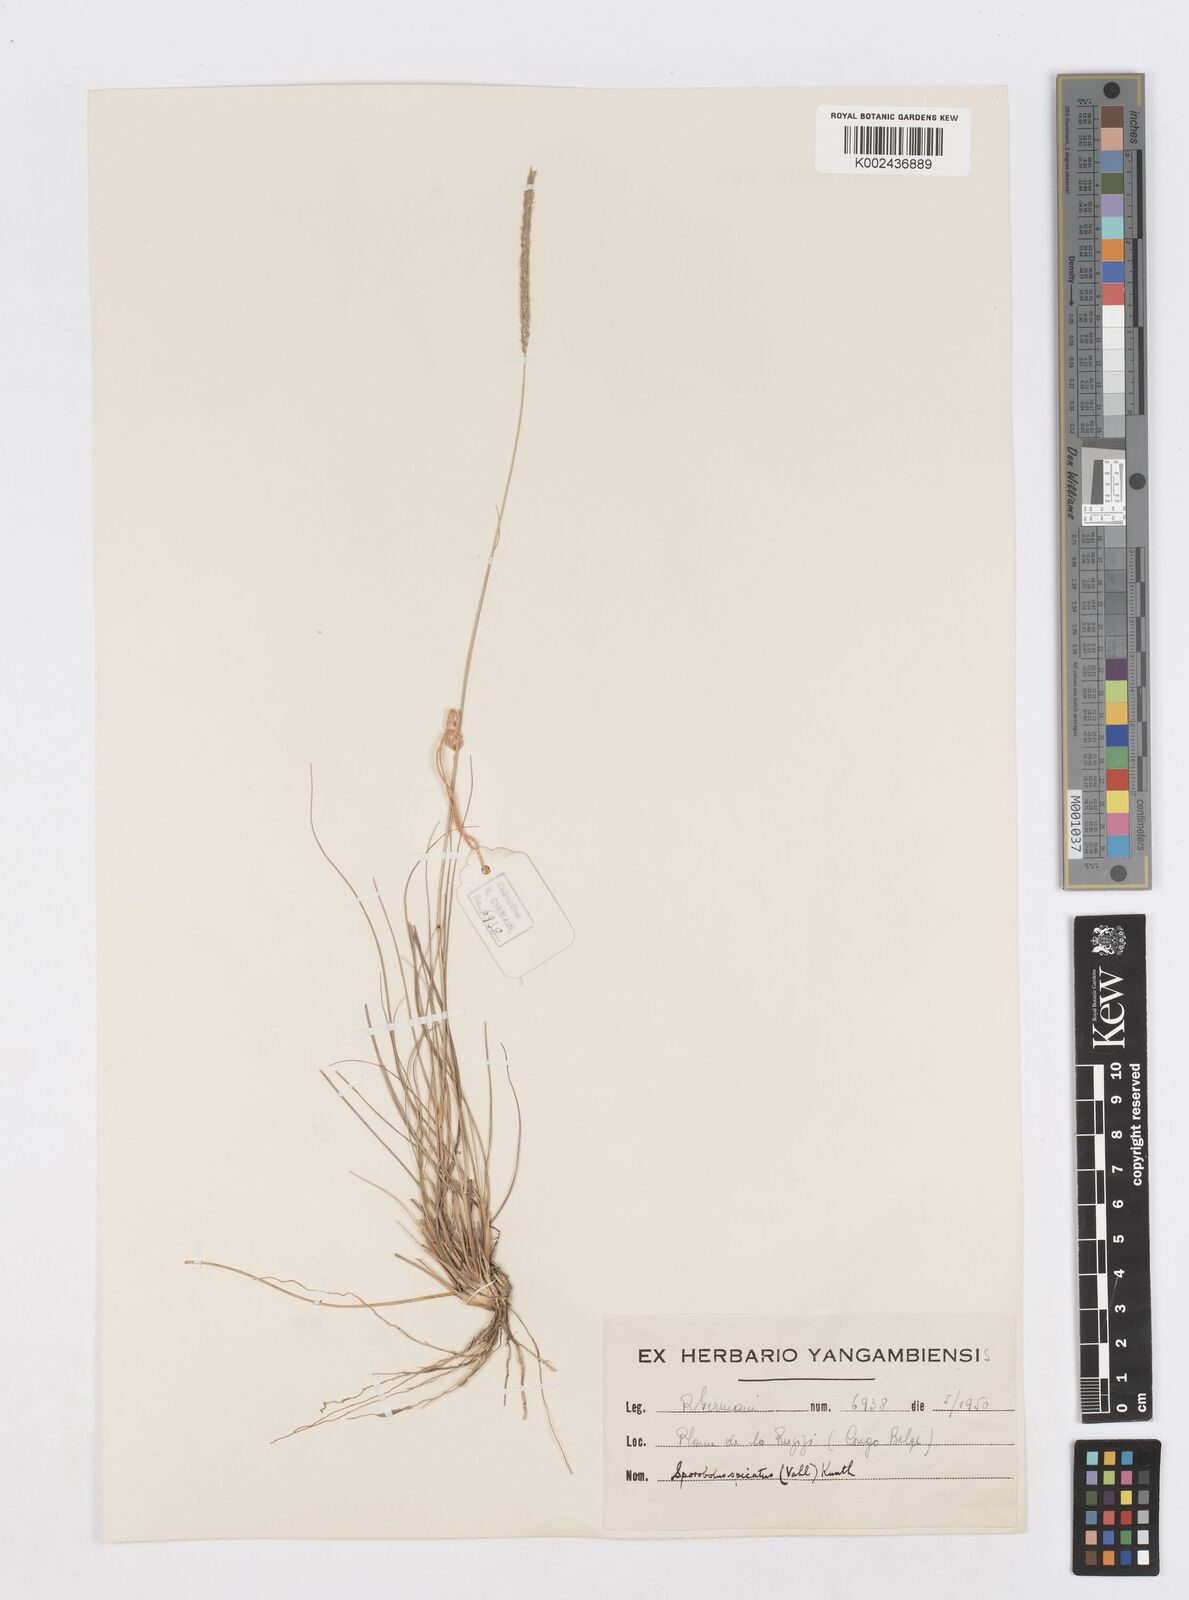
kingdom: Plantae
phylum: Tracheophyta
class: Liliopsida
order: Poales
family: Poaceae
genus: Sporobolus
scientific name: Sporobolus spicatus
